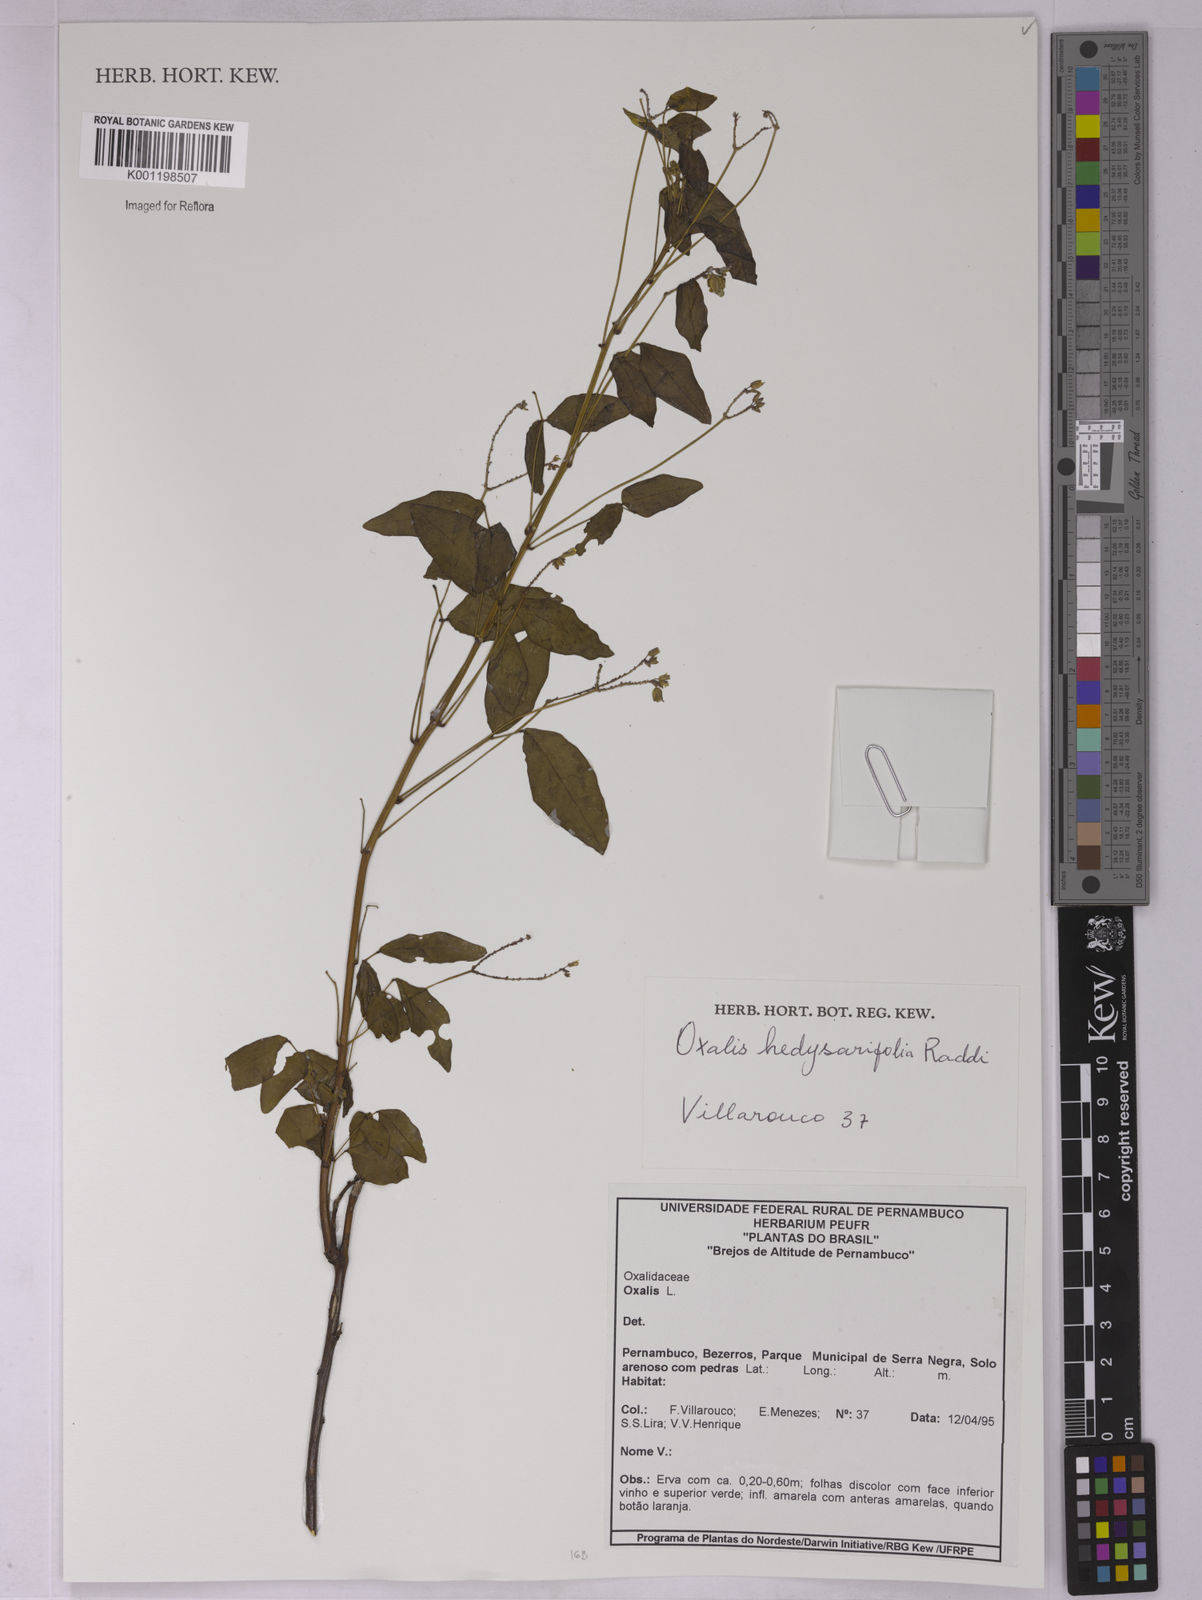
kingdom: Plantae
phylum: Tracheophyta
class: Magnoliopsida
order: Oxalidales
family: Oxalidaceae
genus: Oxalis
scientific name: Oxalis frutescens
